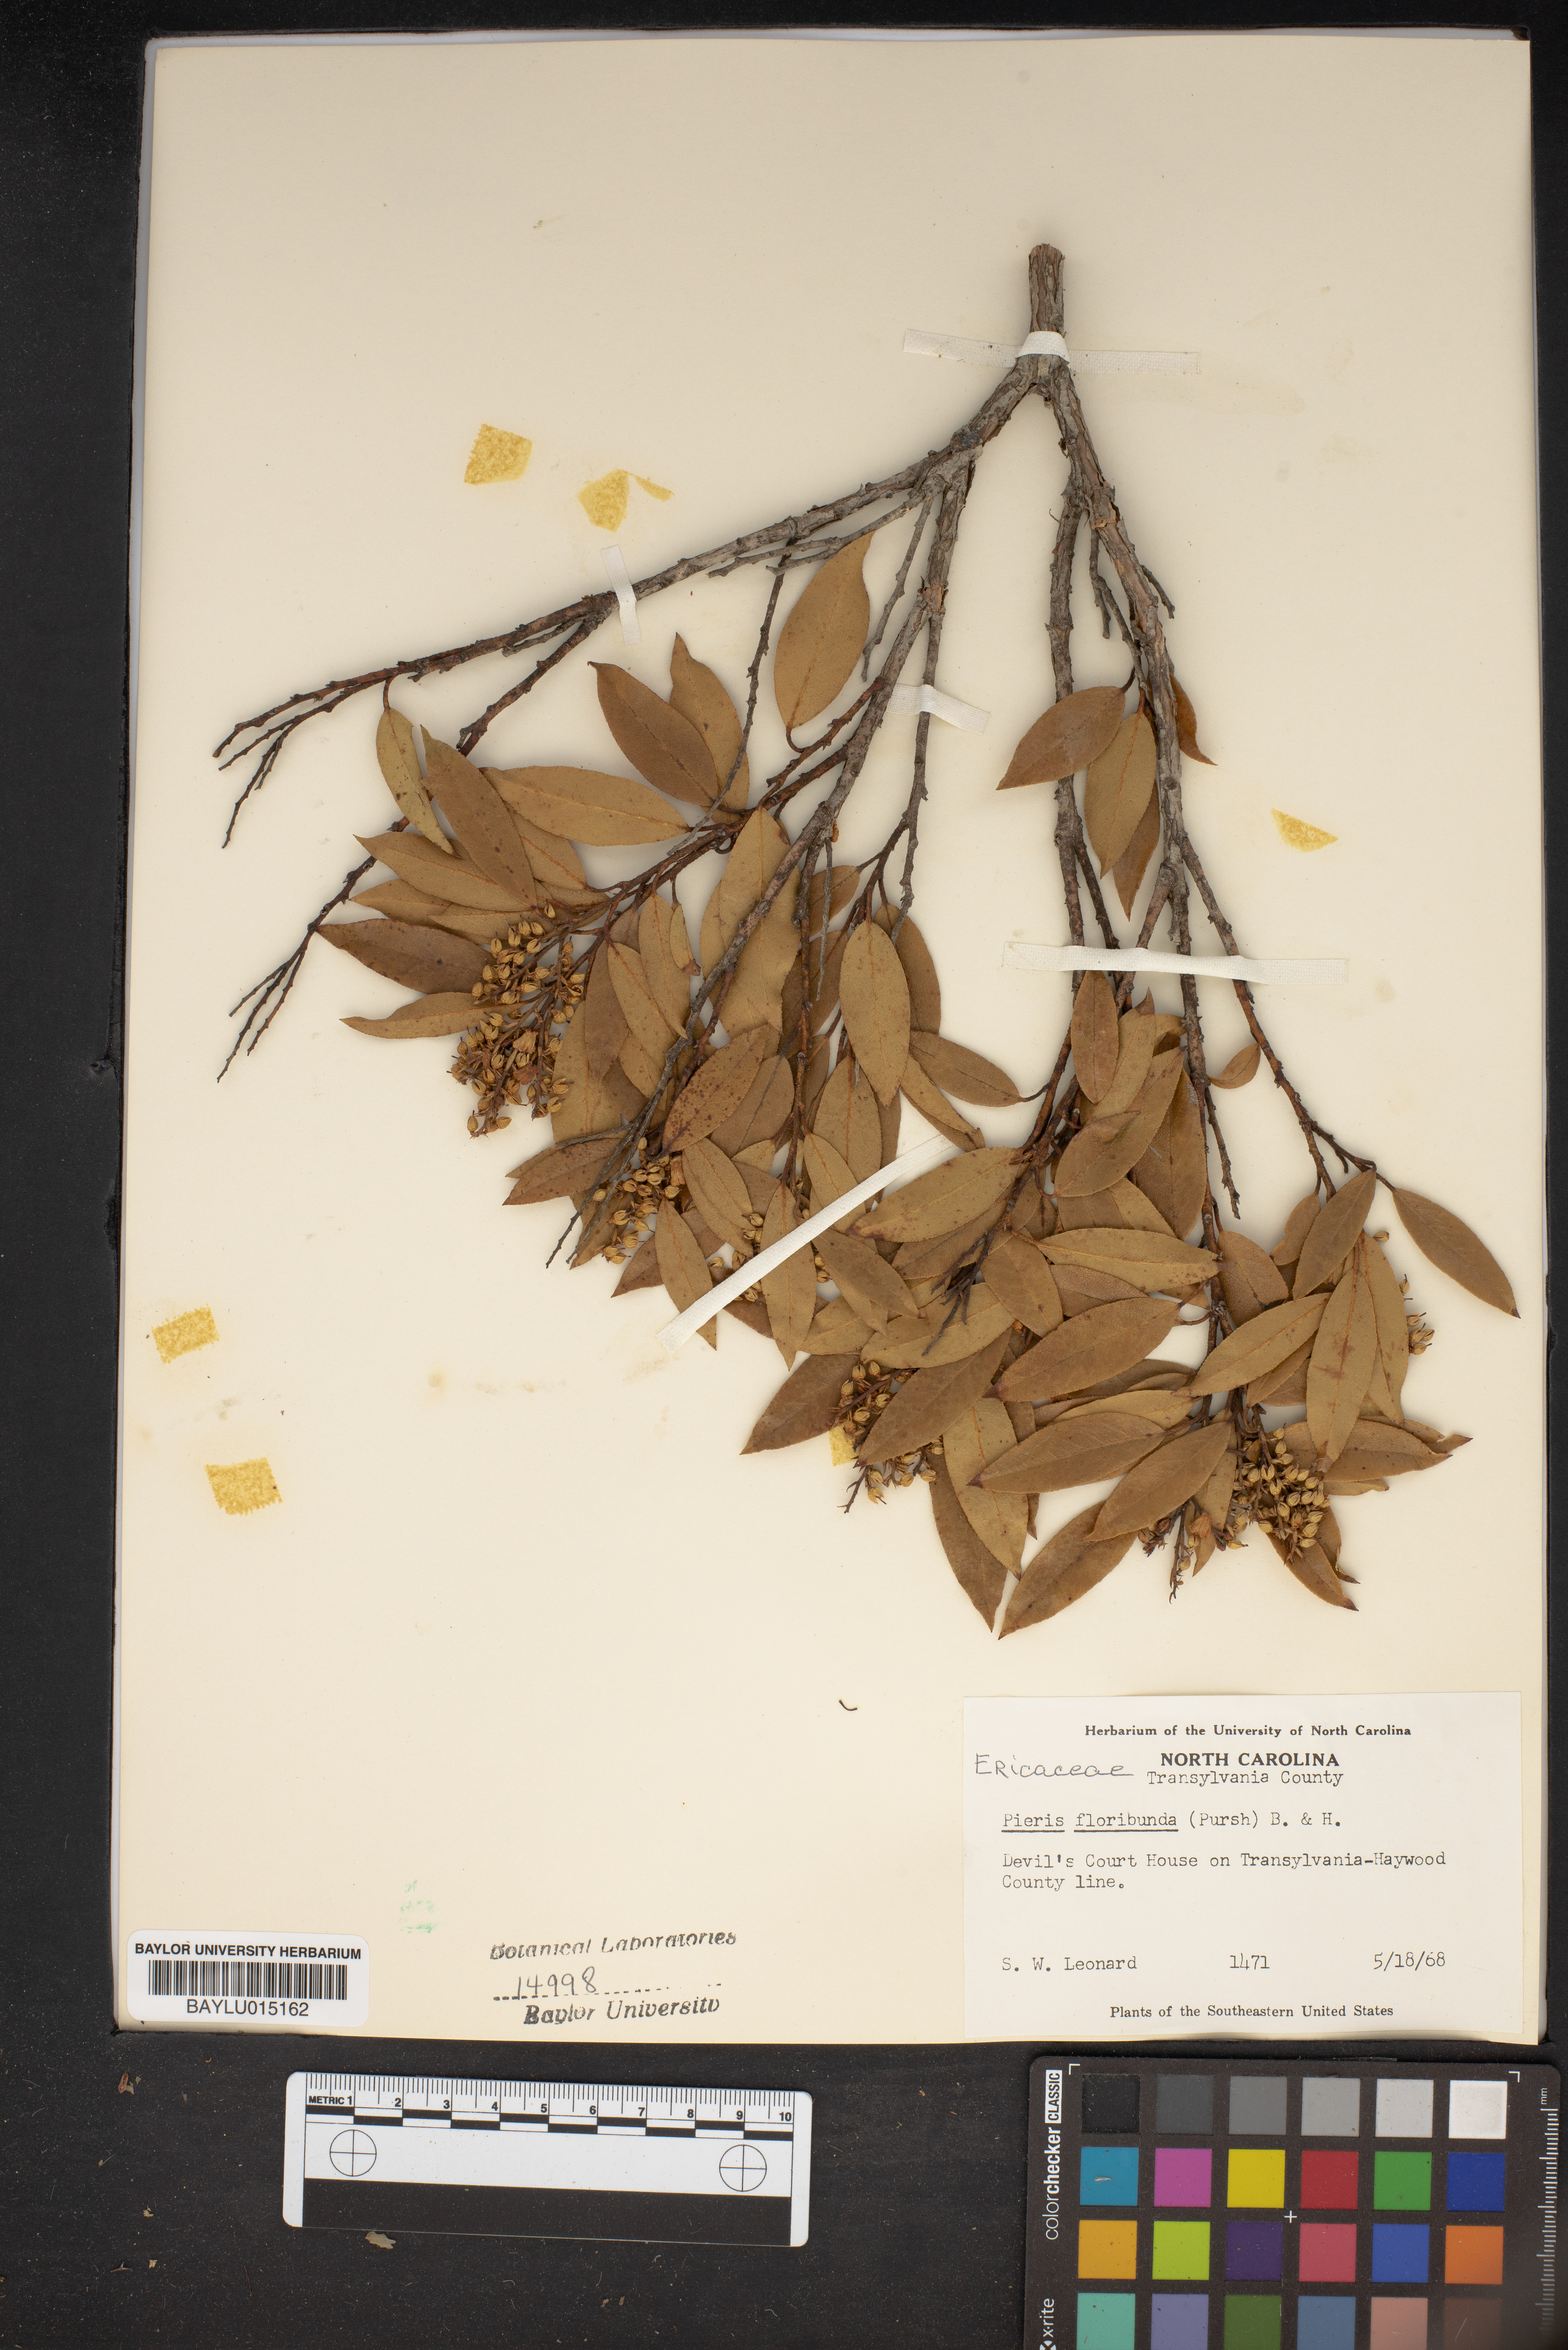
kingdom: Plantae
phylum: Tracheophyta
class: Magnoliopsida
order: Ericales
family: Ericaceae
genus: Pieris
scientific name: Pieris floribunda
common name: Flutterbush
